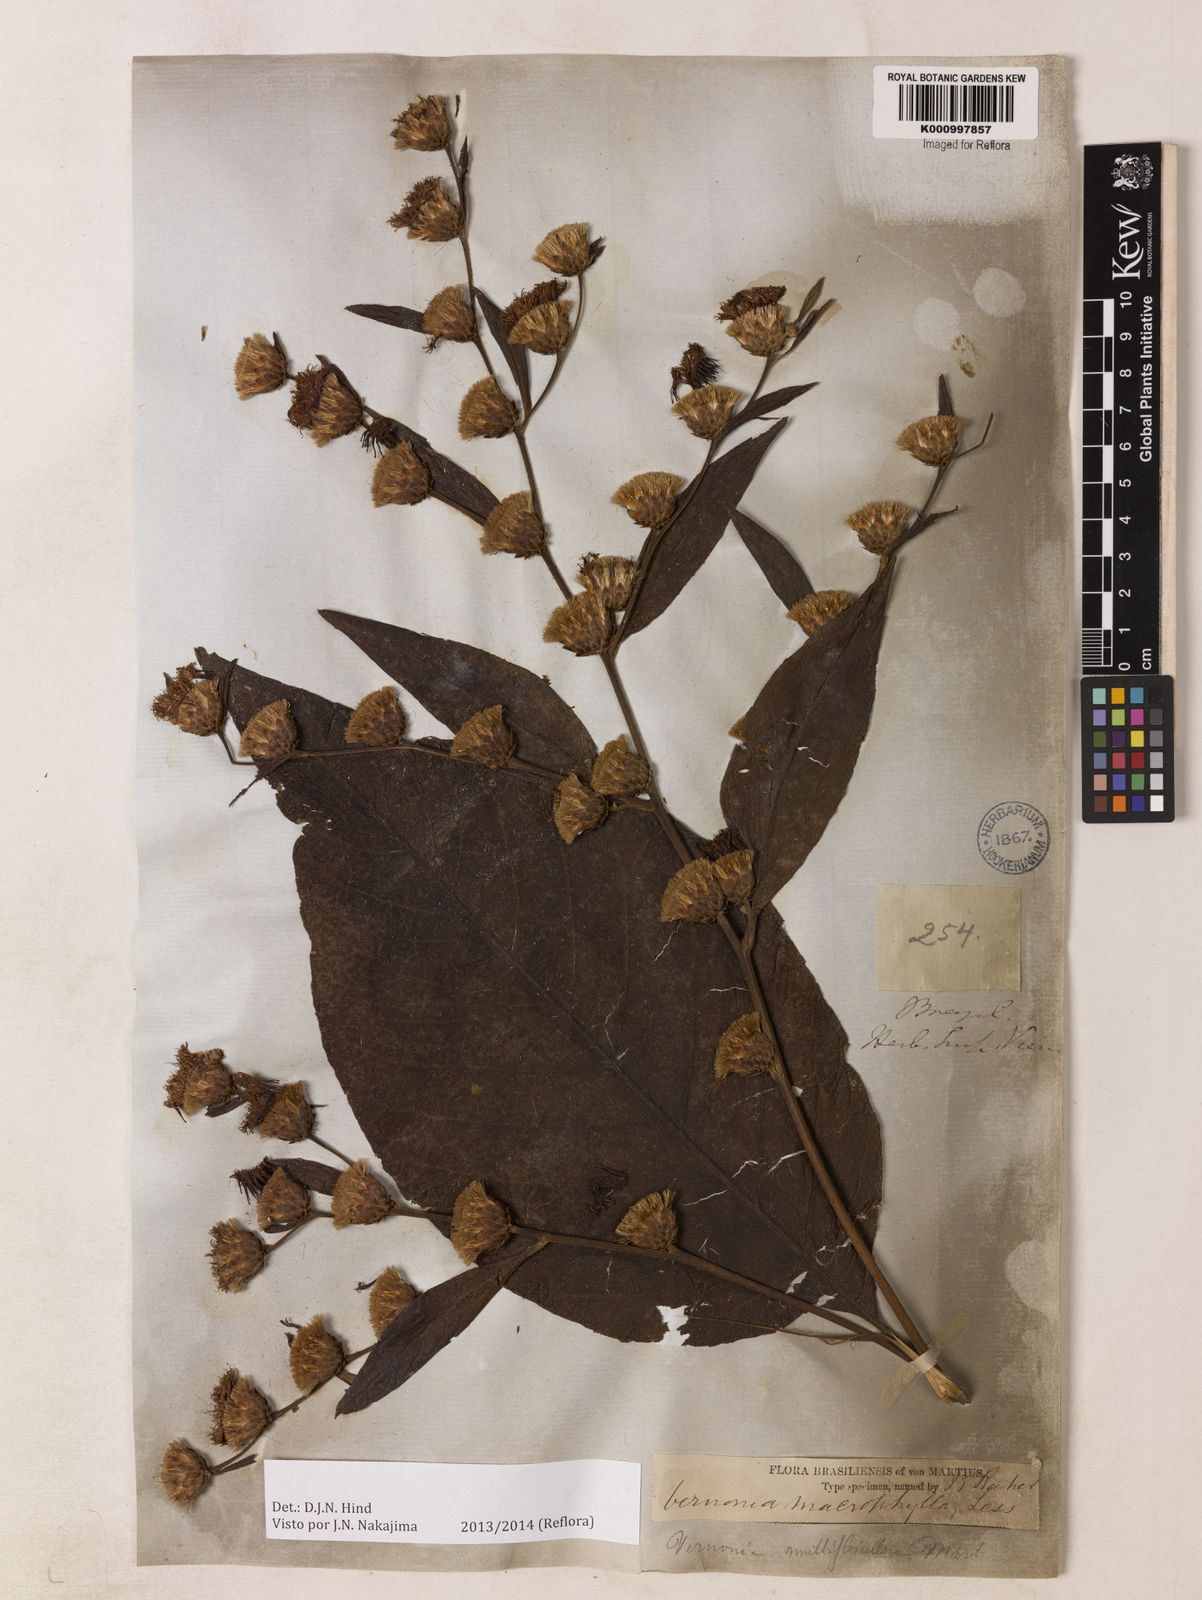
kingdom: Plantae
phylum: Tracheophyta
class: Magnoliopsida
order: Asterales
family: Asteraceae
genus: Lessingianthus
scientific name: Lessingianthus macrophyllus
